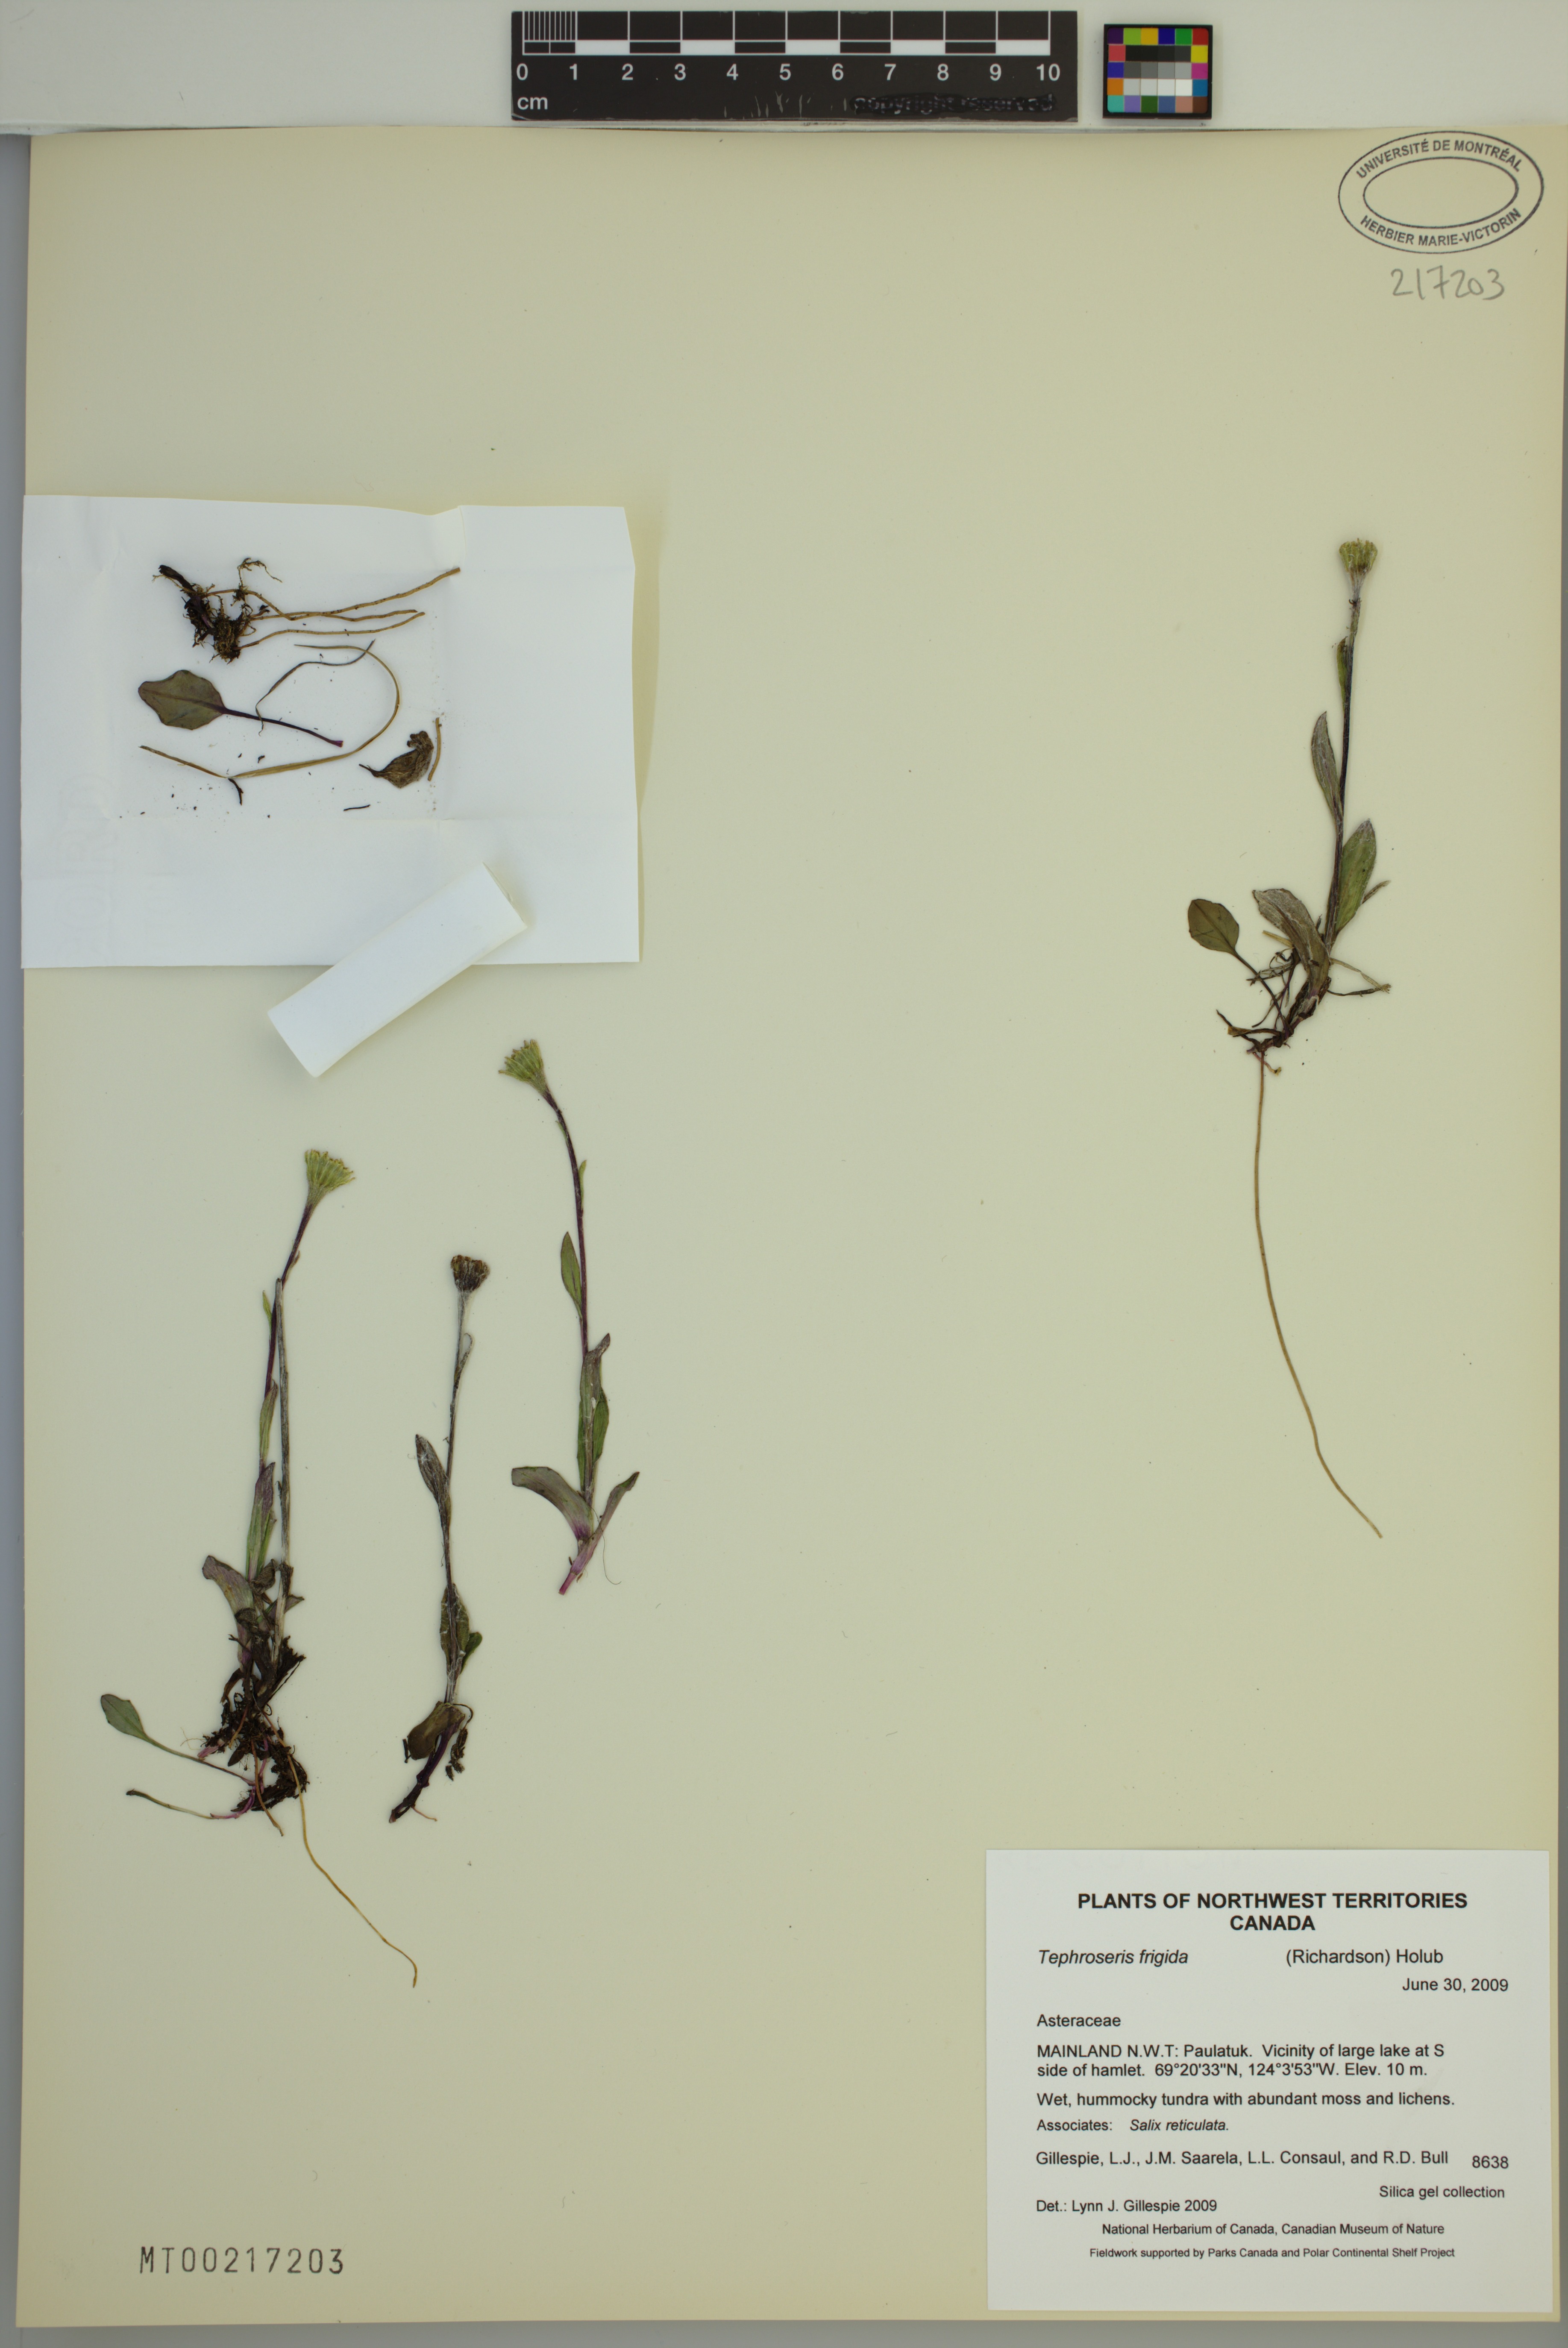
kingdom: Plantae
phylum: Tracheophyta
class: Magnoliopsida
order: Asterales
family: Asteraceae
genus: Tephroseris
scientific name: Tephroseris frigida
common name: Arctic groundsel
